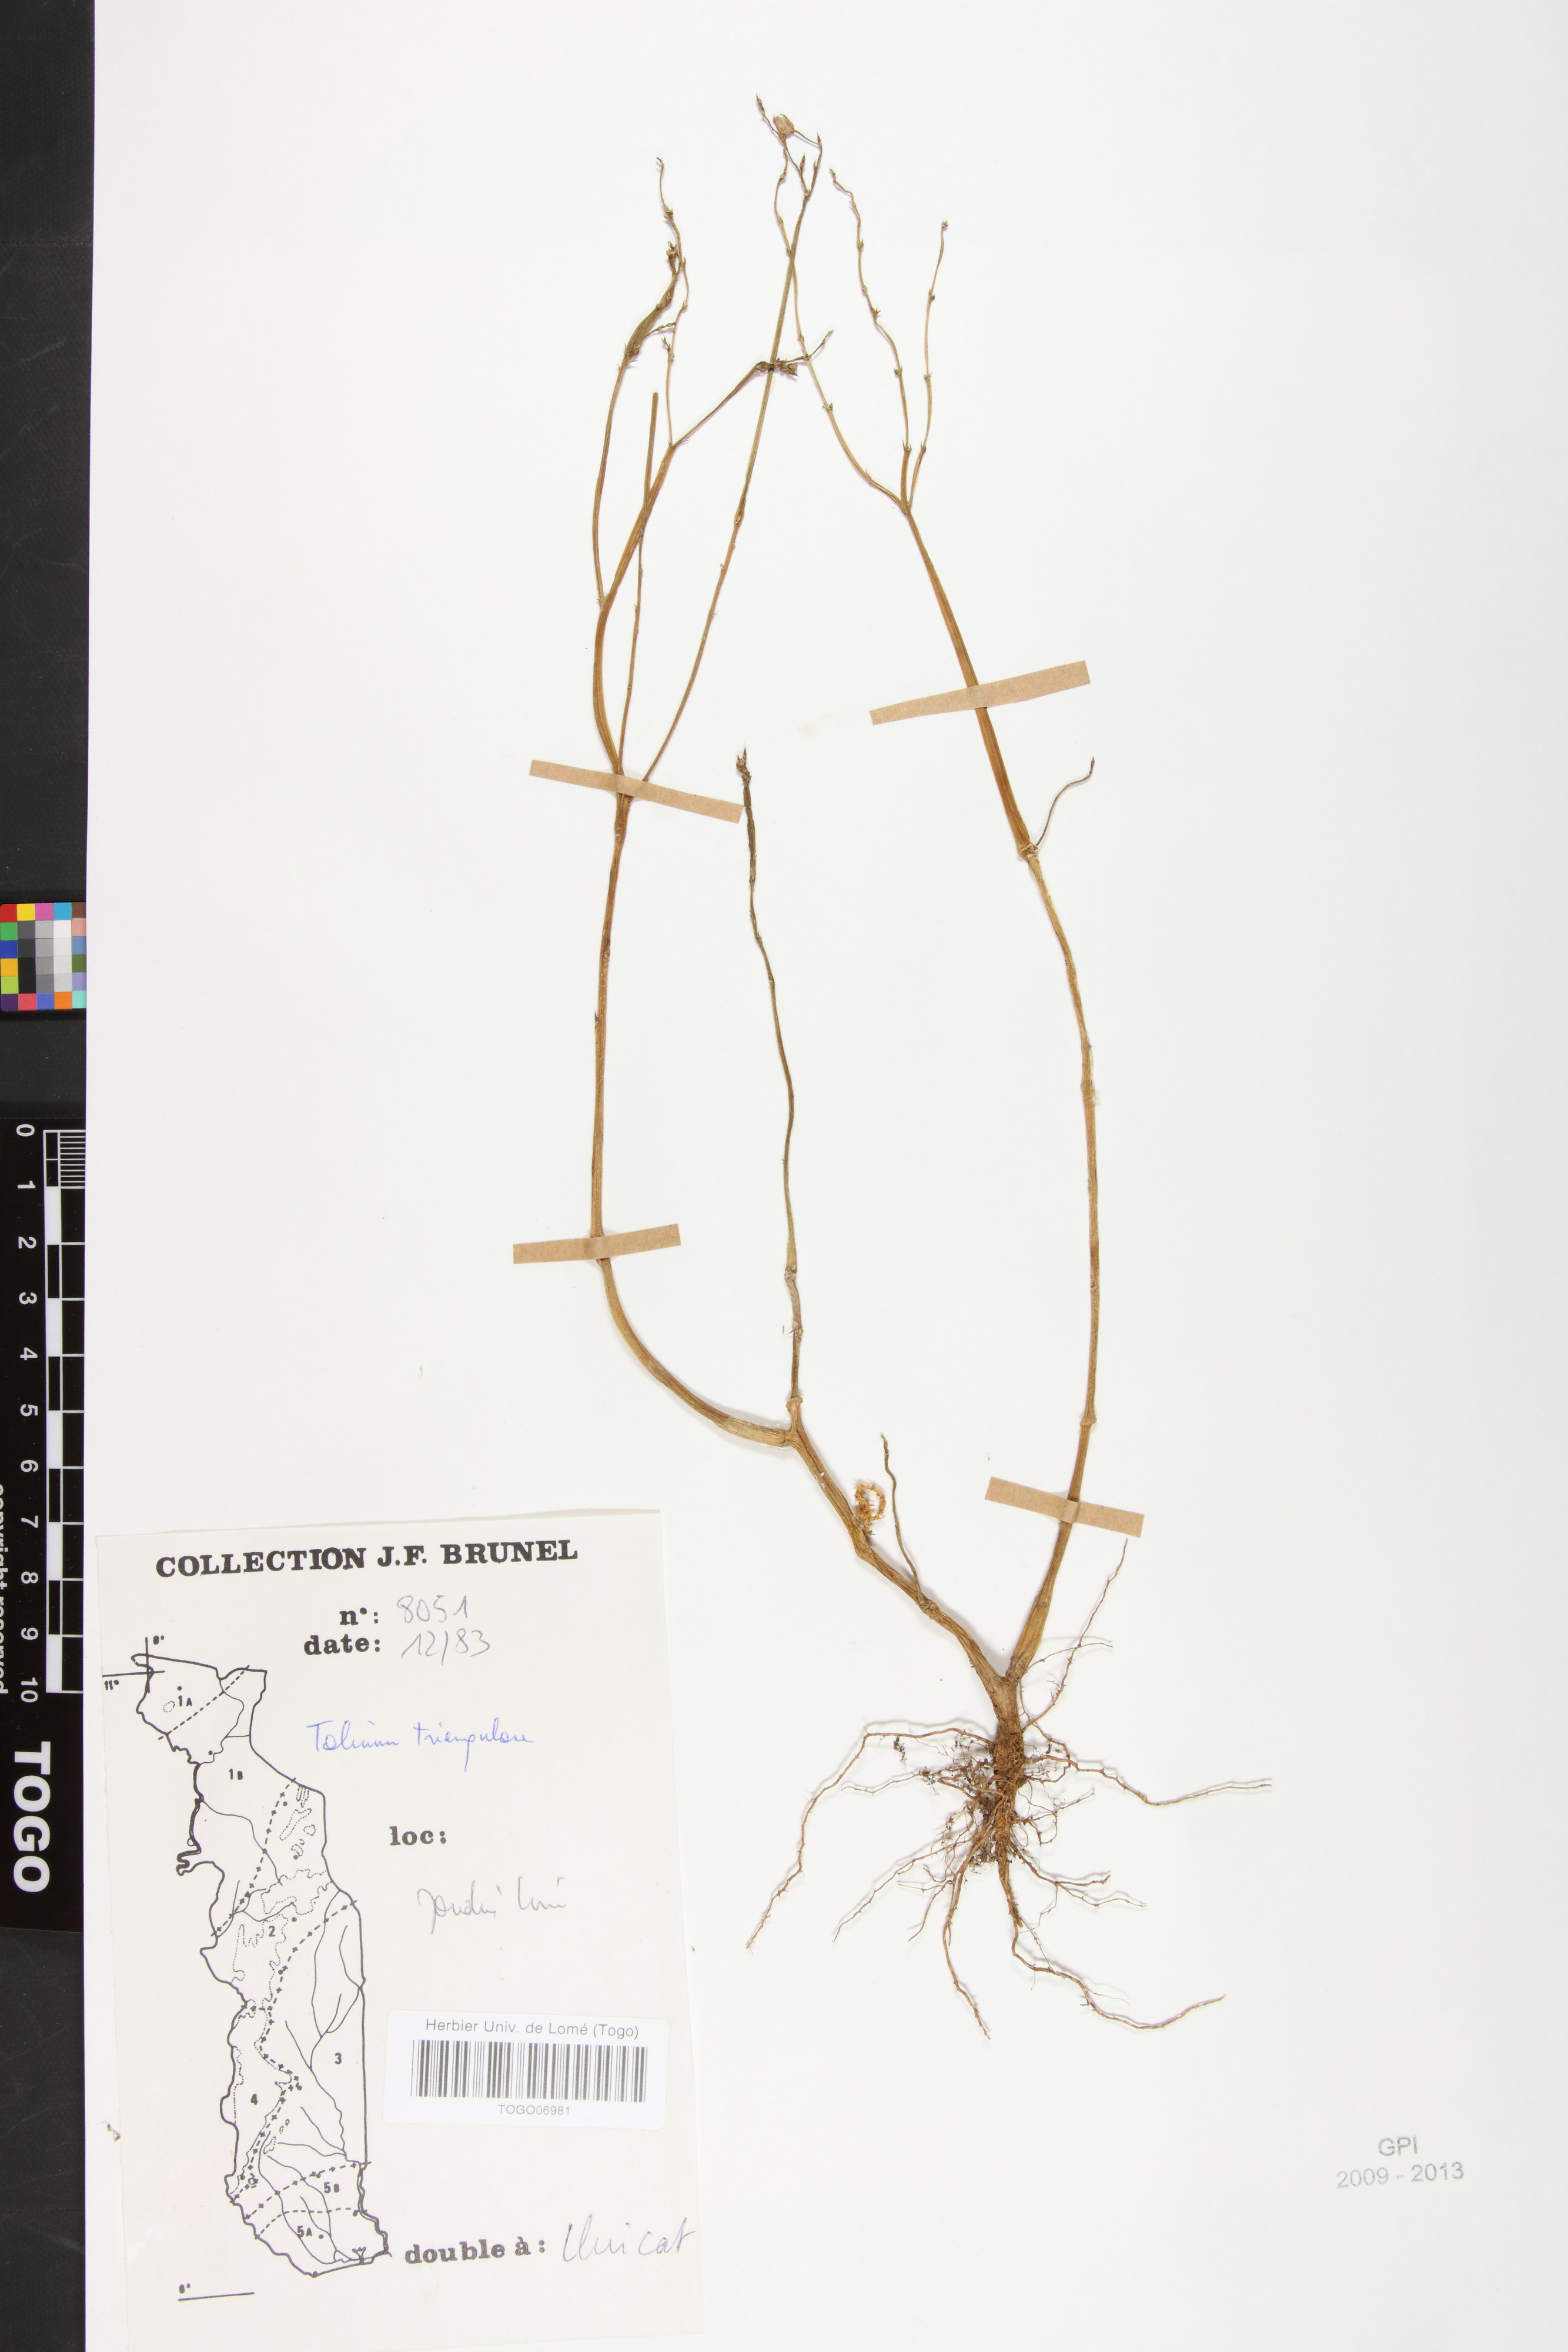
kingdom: Plantae
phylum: Tracheophyta
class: Magnoliopsida
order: Caryophyllales
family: Talinaceae
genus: Talinum
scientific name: Talinum fruticosum
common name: Verdolaga-francesa
